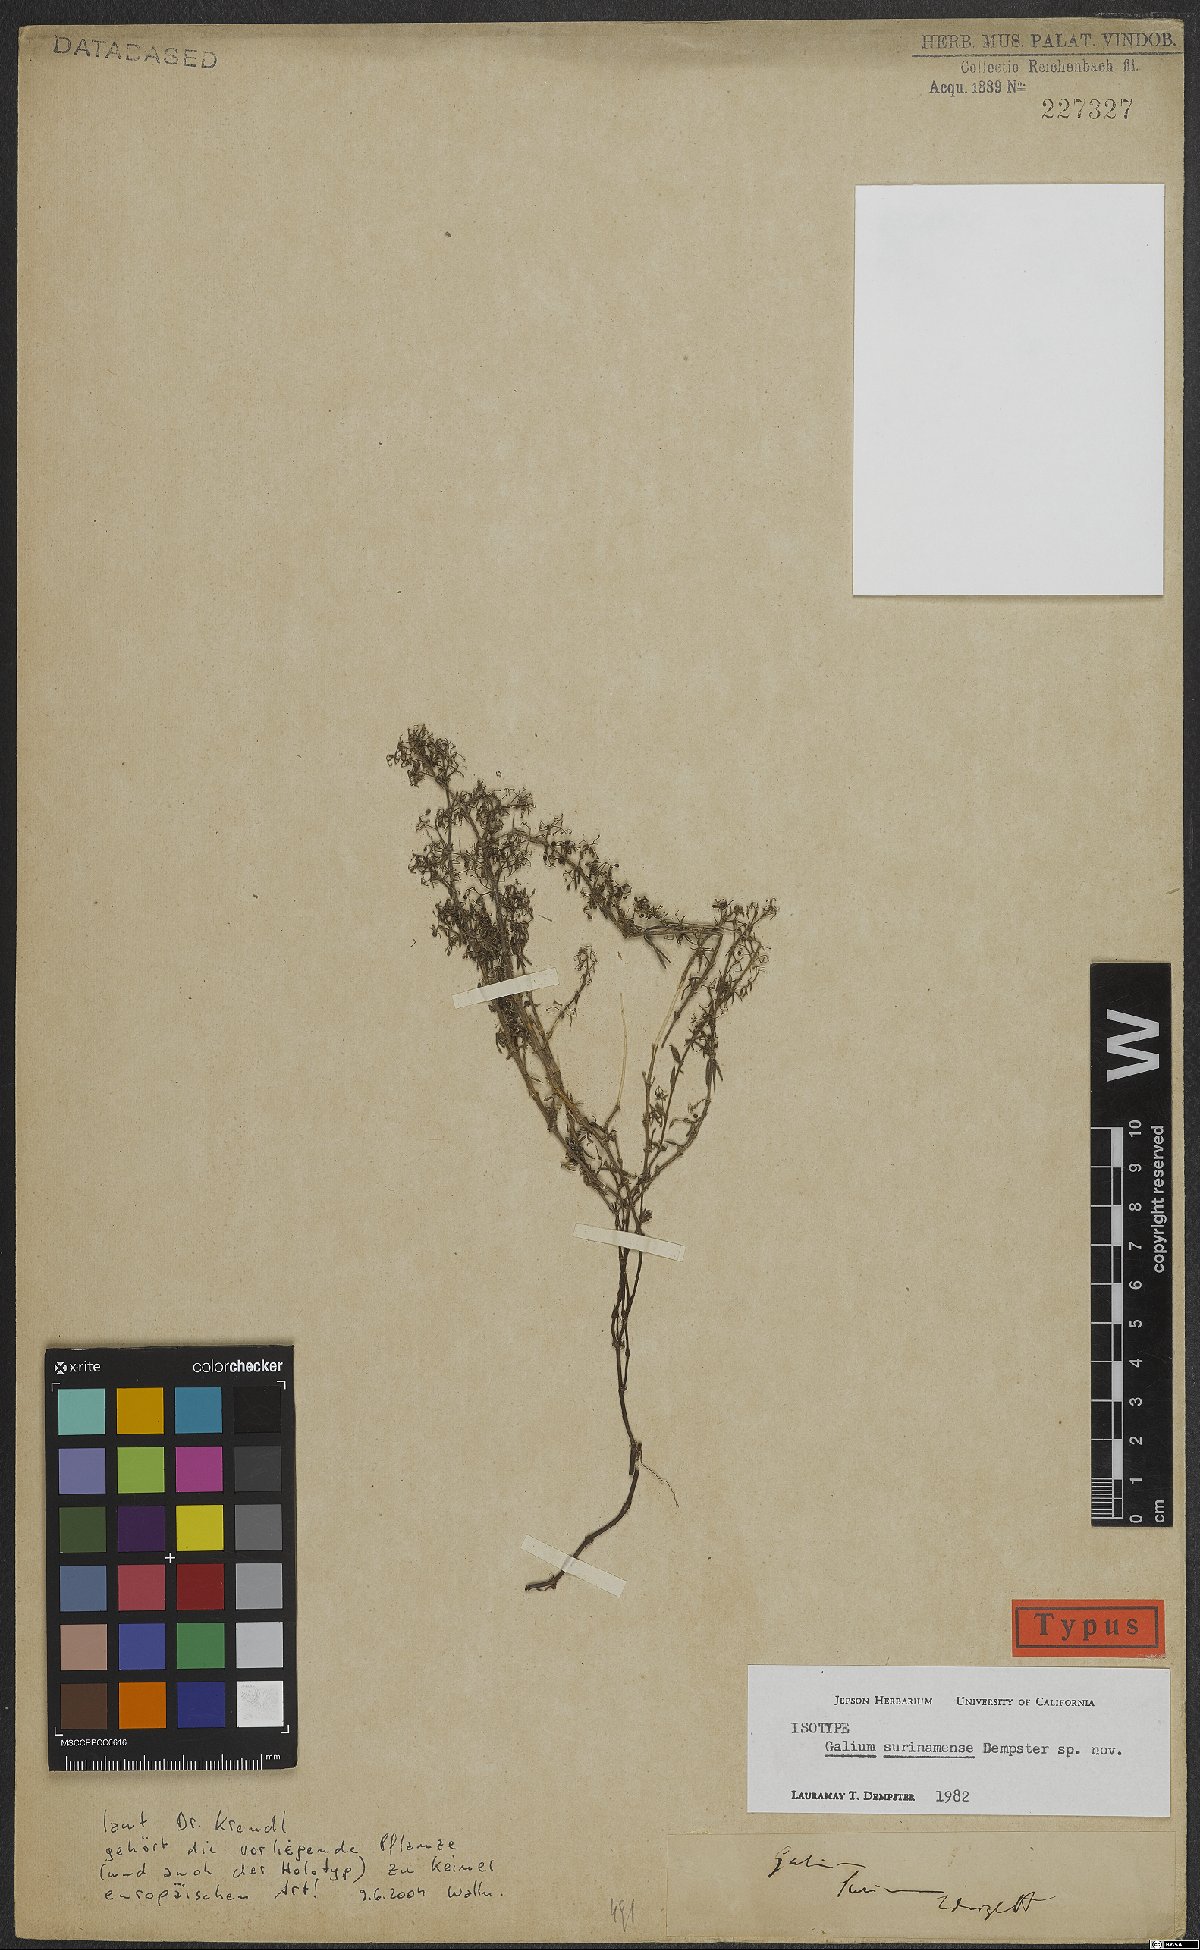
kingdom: Plantae
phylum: Tracheophyta
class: Magnoliopsida
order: Gentianales
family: Rubiaceae
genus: Galium
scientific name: Galium surinamense
